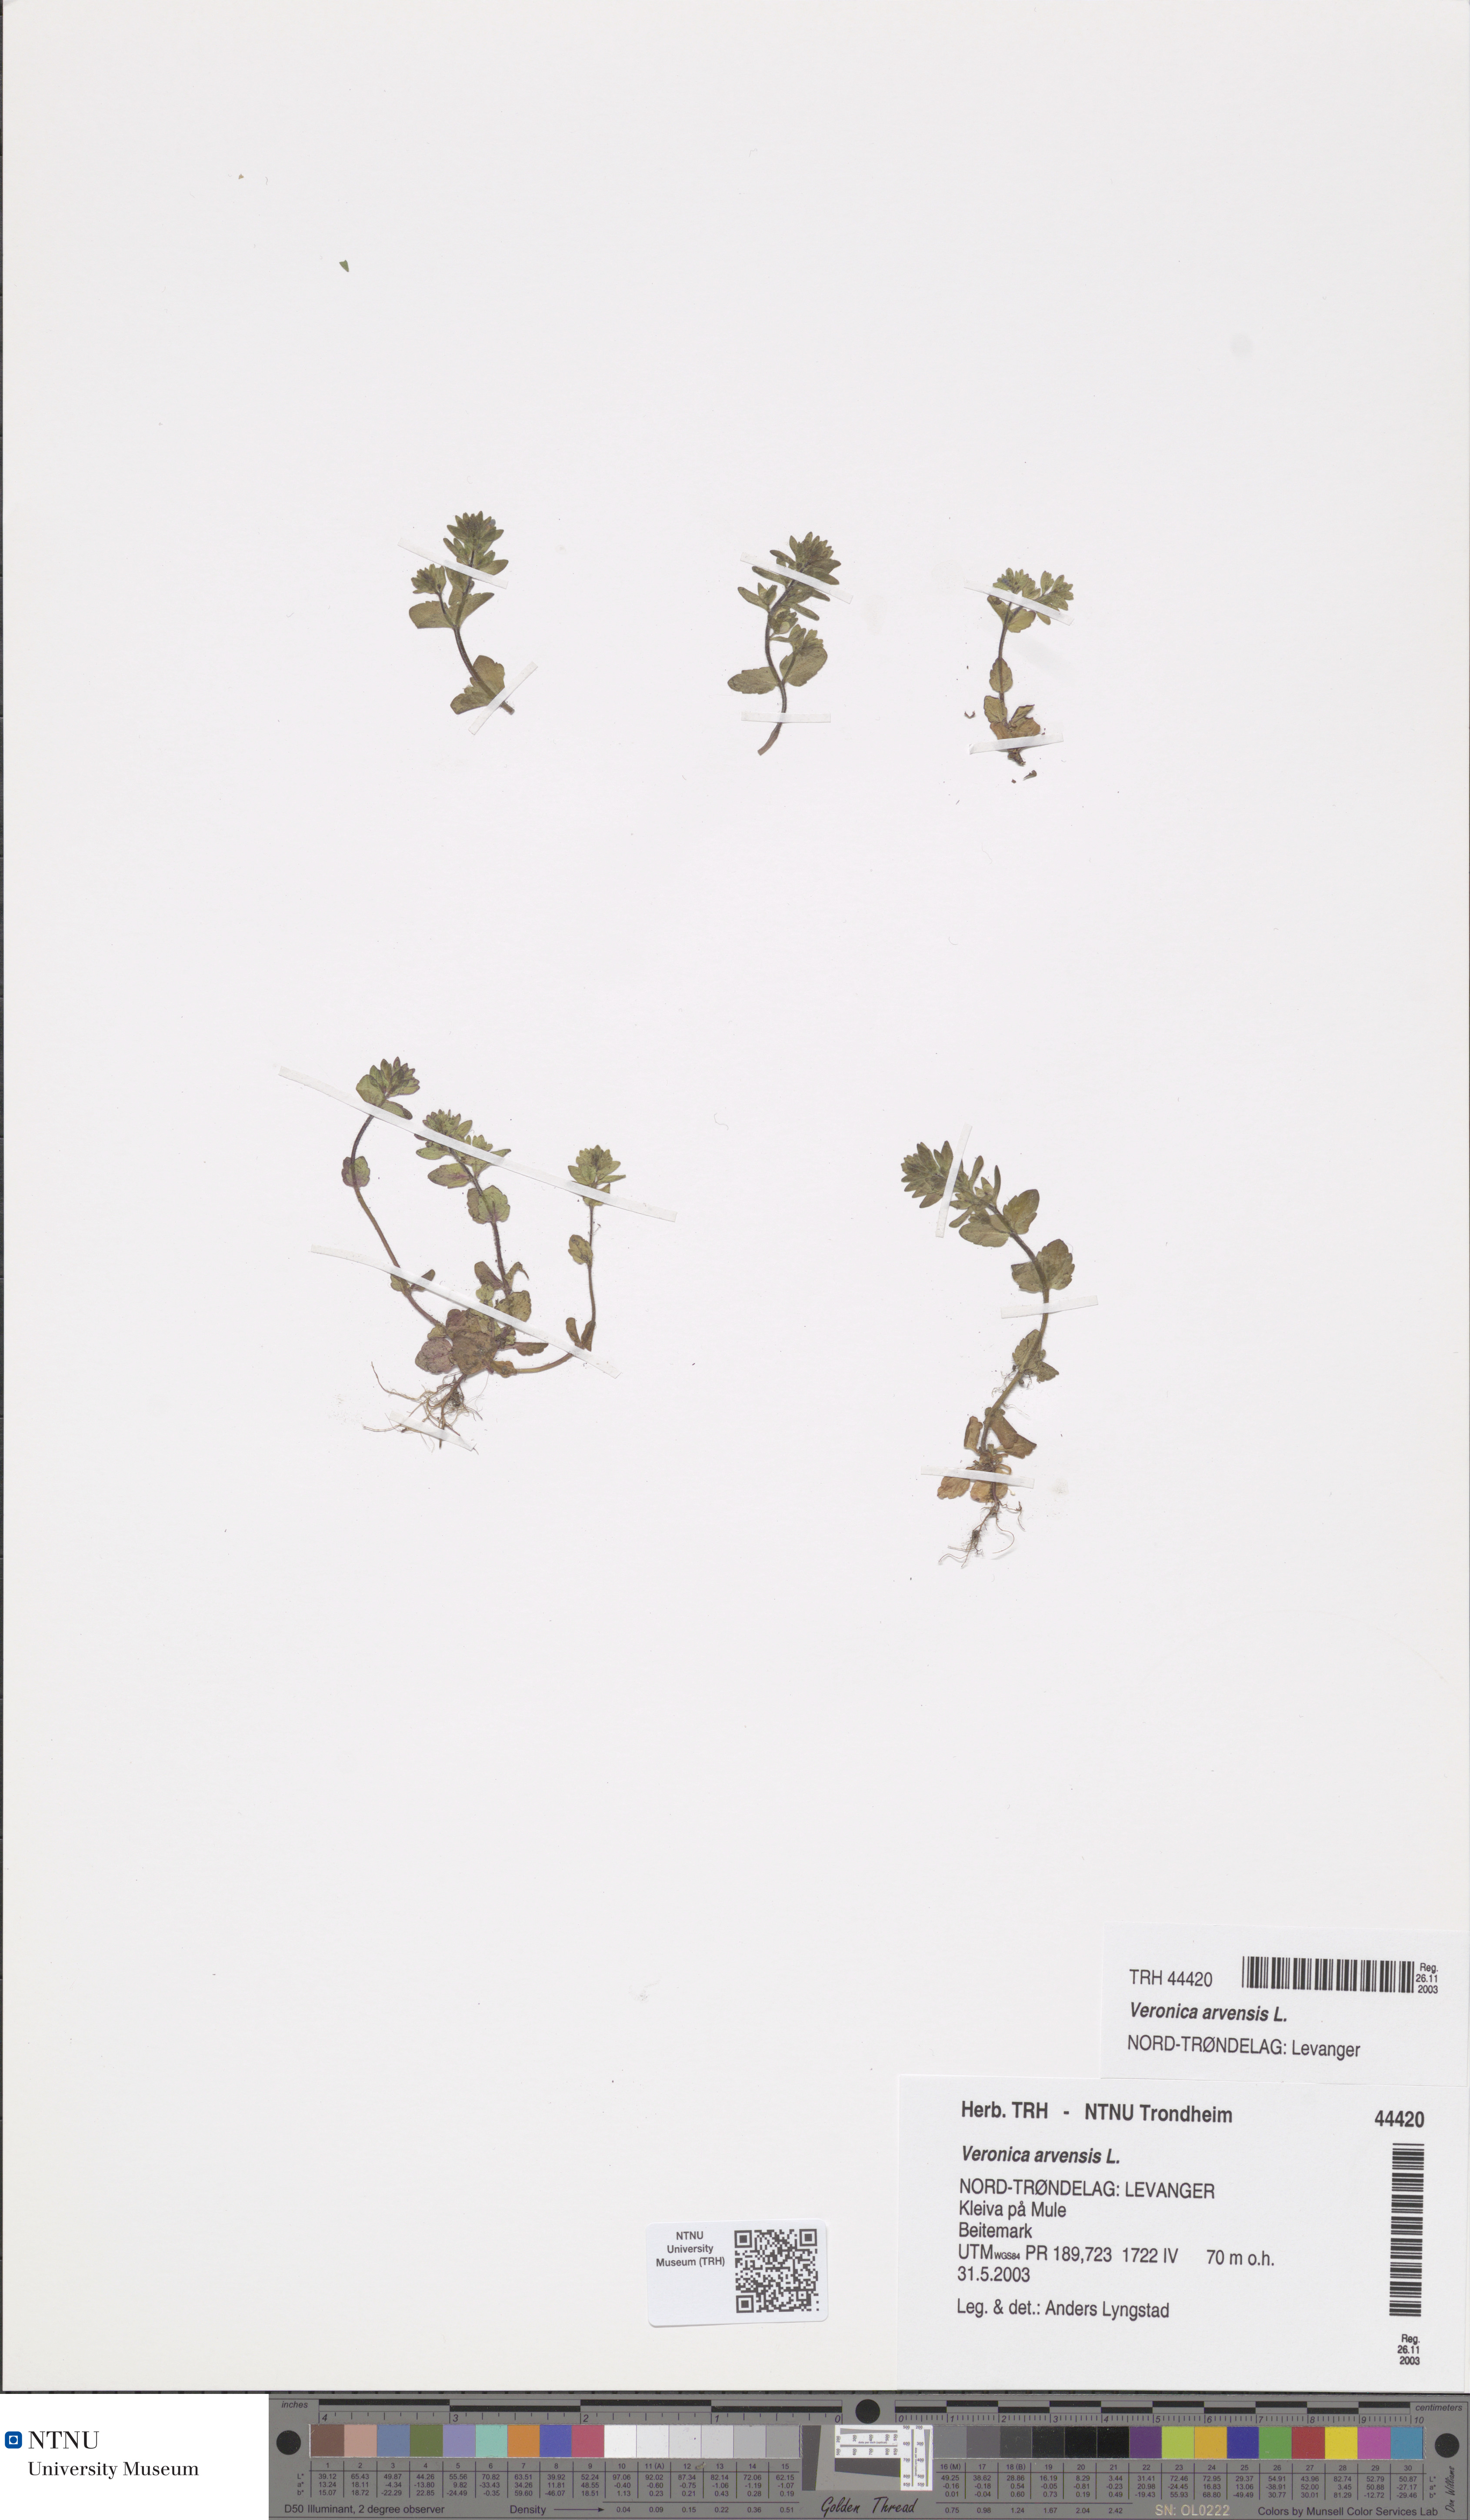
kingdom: Plantae
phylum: Tracheophyta
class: Magnoliopsida
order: Lamiales
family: Plantaginaceae
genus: Veronica
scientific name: Veronica arvensis
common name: Corn speedwell
